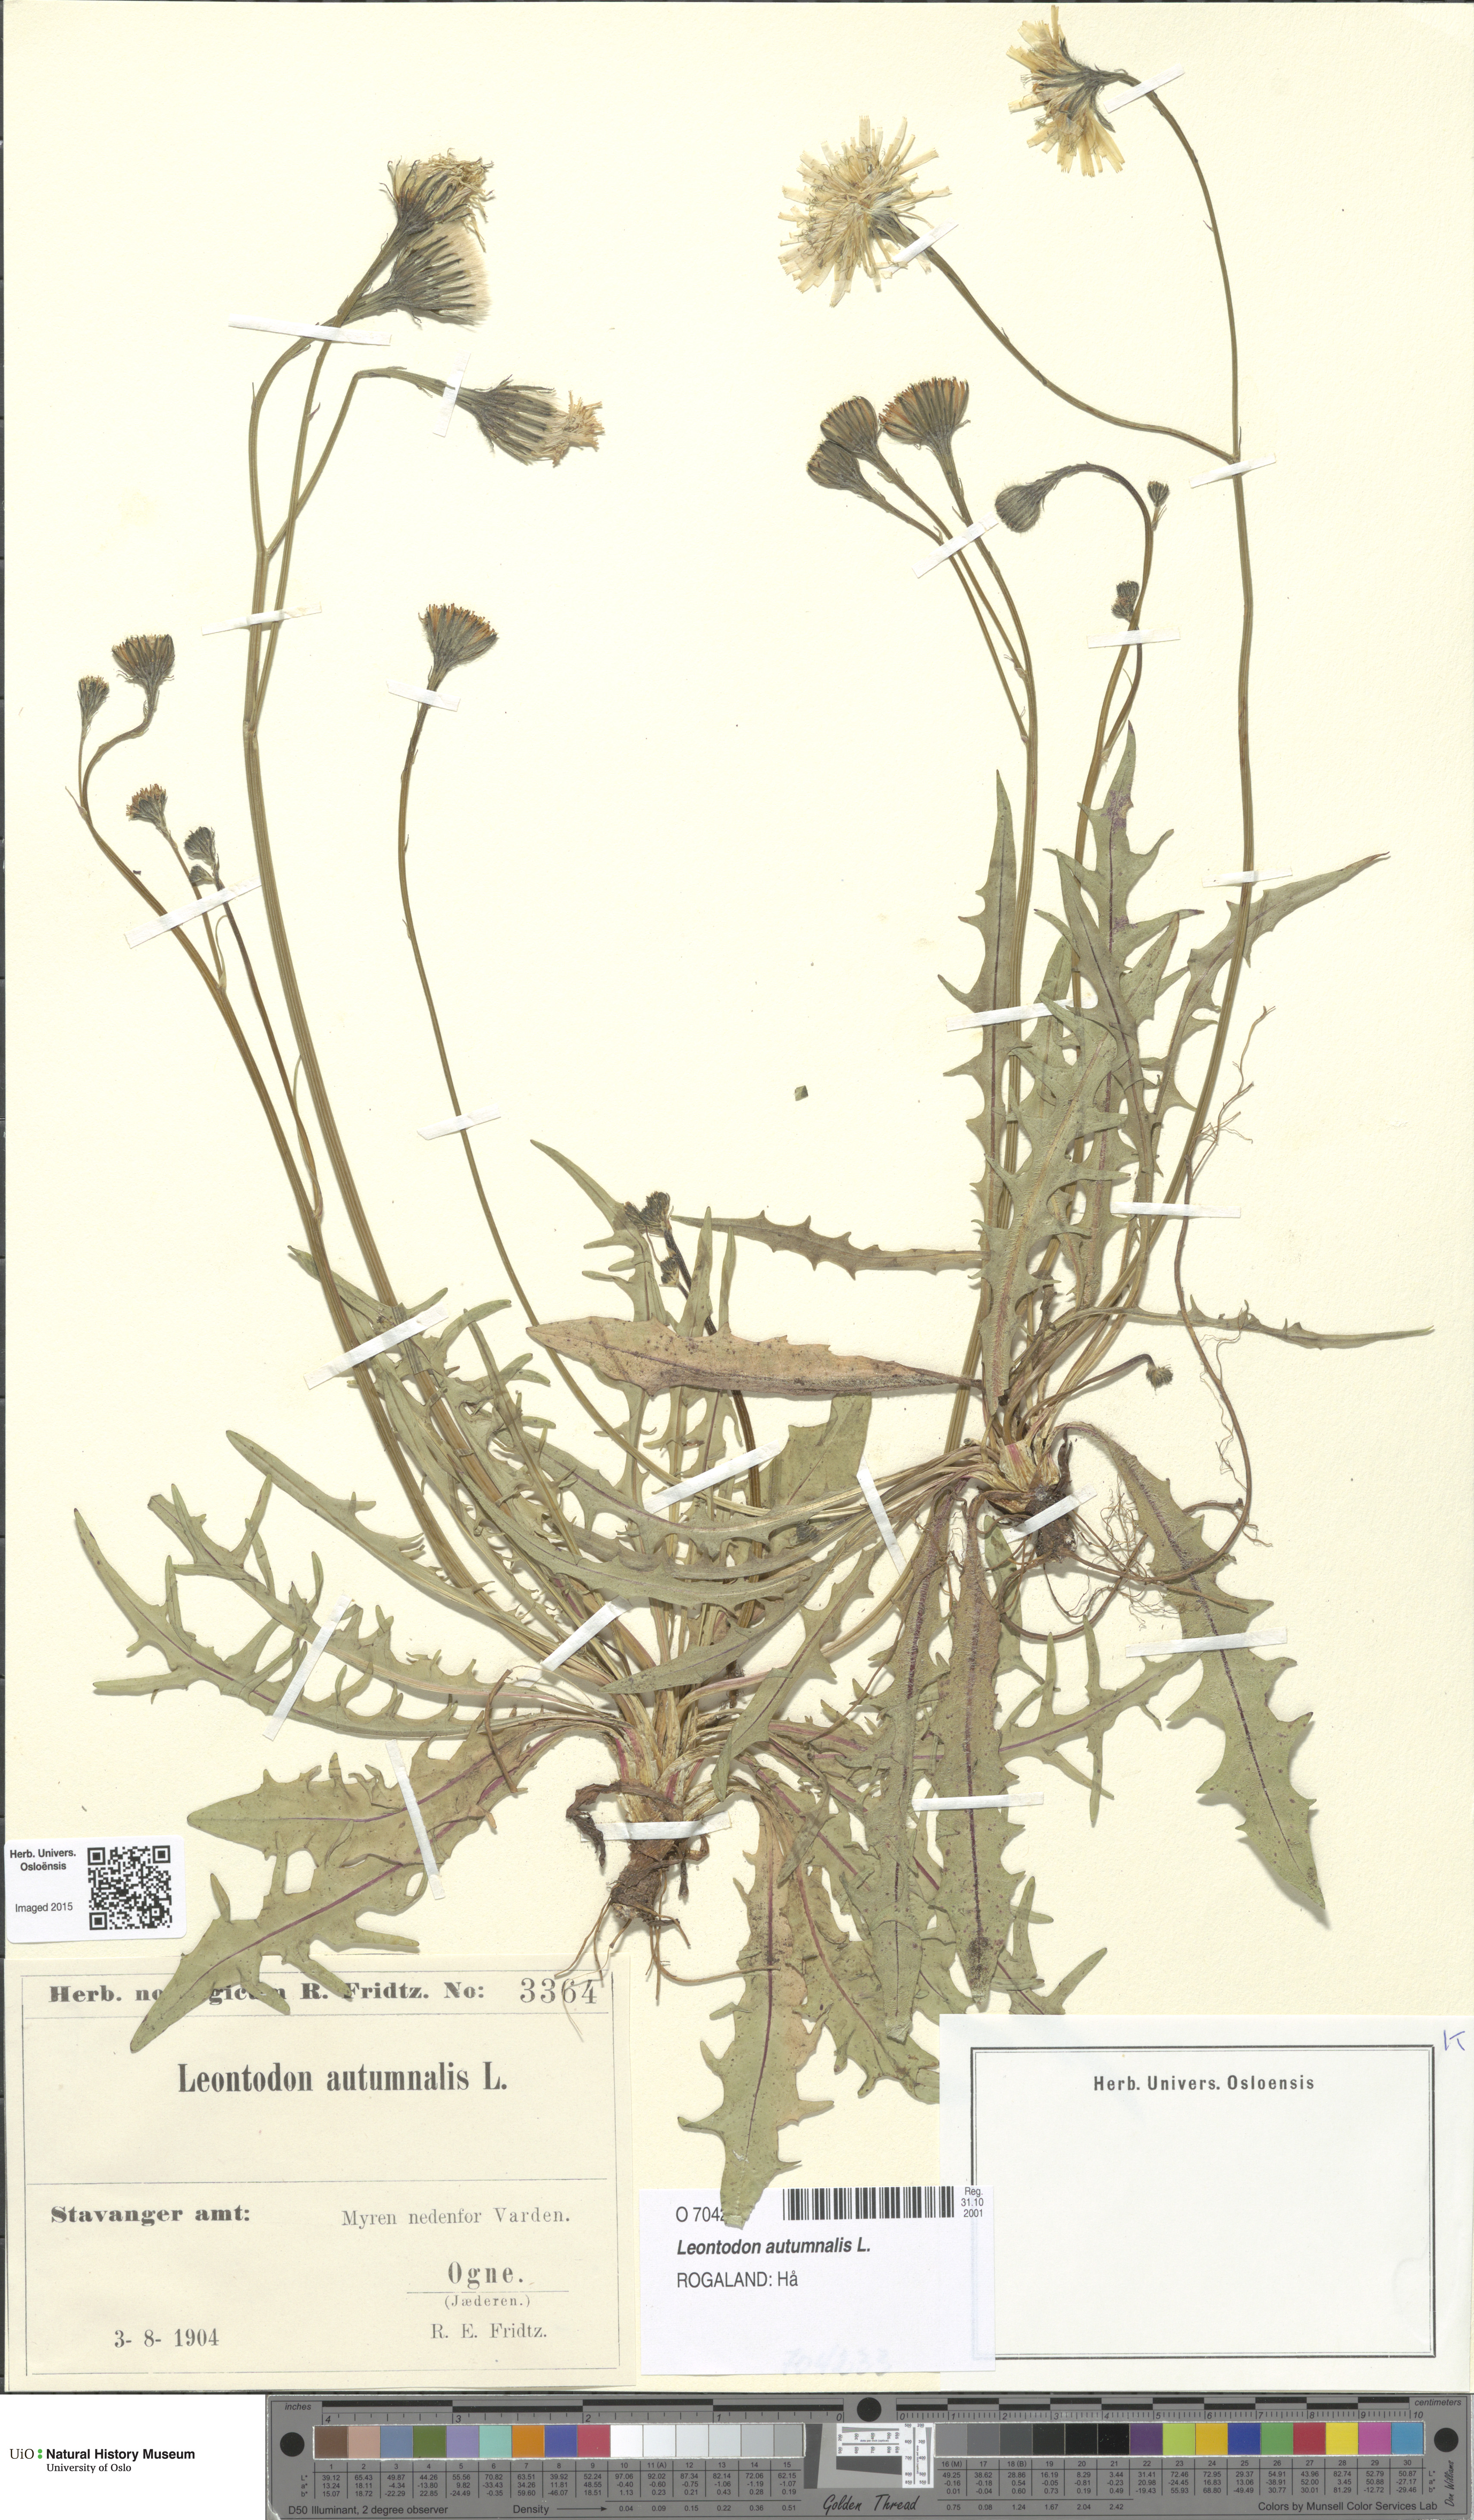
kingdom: Plantae
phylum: Tracheophyta
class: Magnoliopsida
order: Asterales
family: Asteraceae
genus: Scorzoneroides
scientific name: Scorzoneroides autumnalis
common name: Autumn hawkbit
